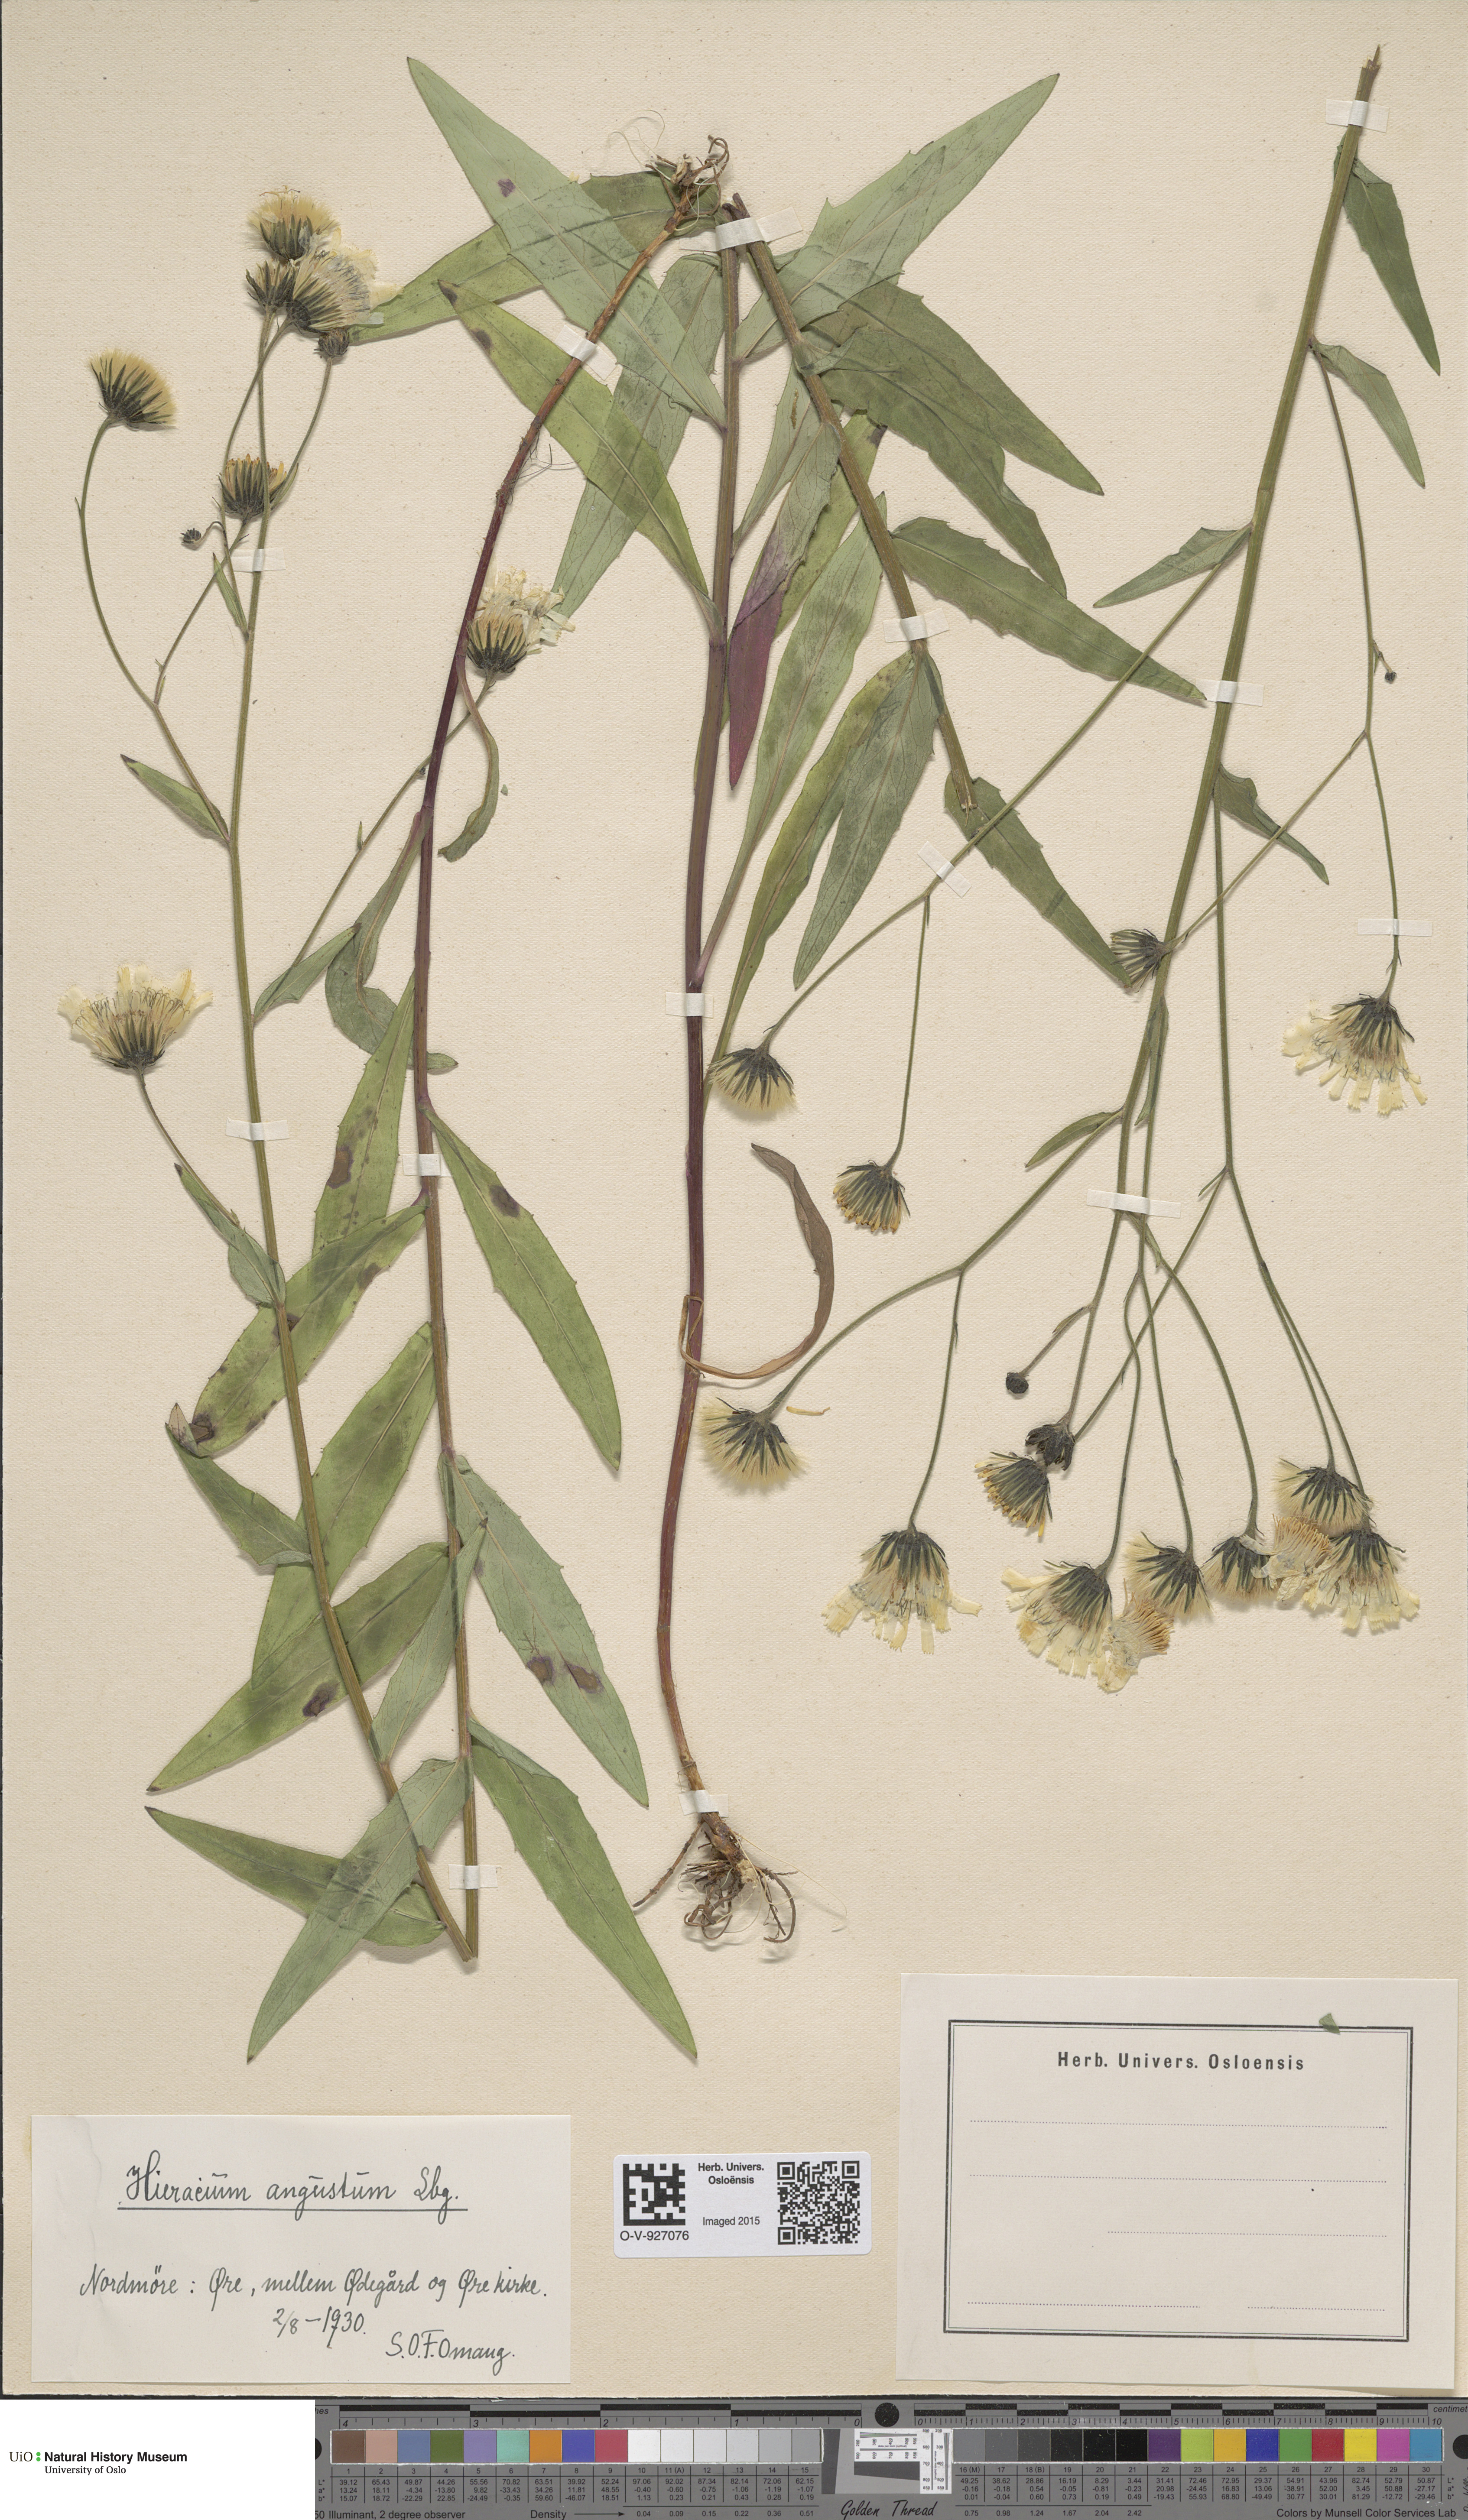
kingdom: Plantae
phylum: Tracheophyta
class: Magnoliopsida
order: Asterales
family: Asteraceae
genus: Hieracium
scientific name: Hieracium angustum
